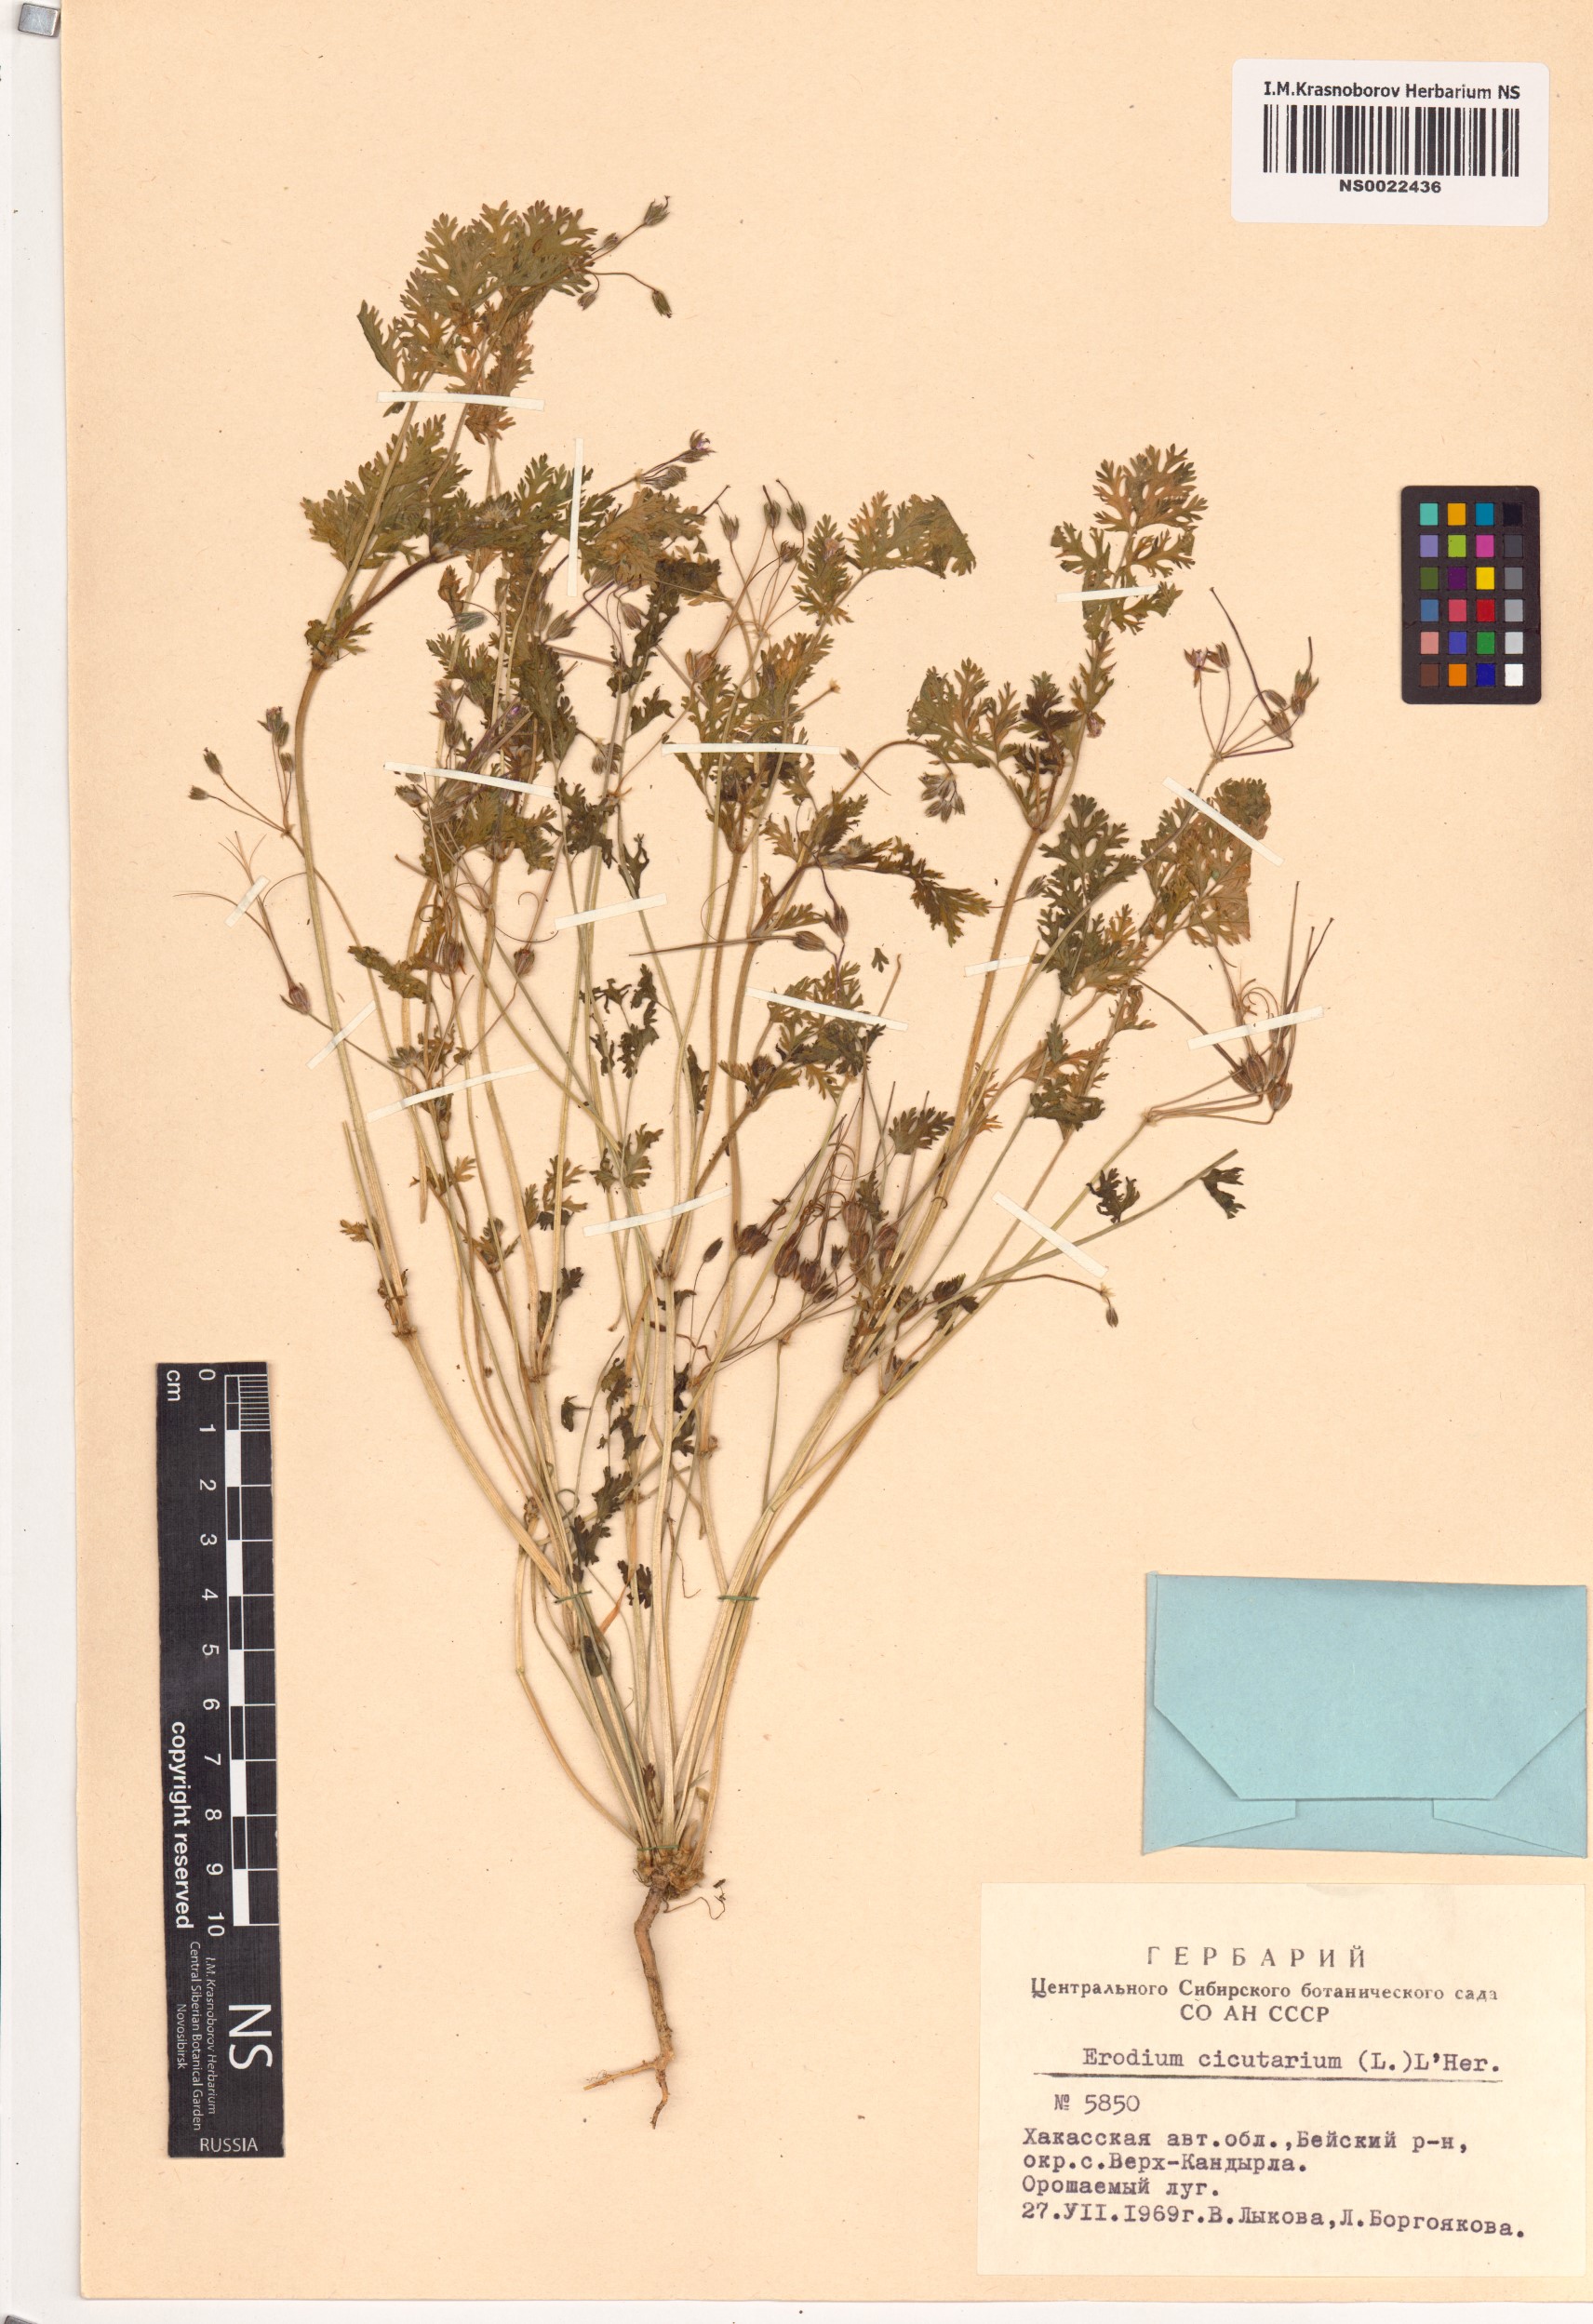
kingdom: Plantae
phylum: Tracheophyta
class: Magnoliopsida
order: Geraniales
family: Geraniaceae
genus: Erodium
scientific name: Erodium cicutarium
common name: Common stork's-bill
